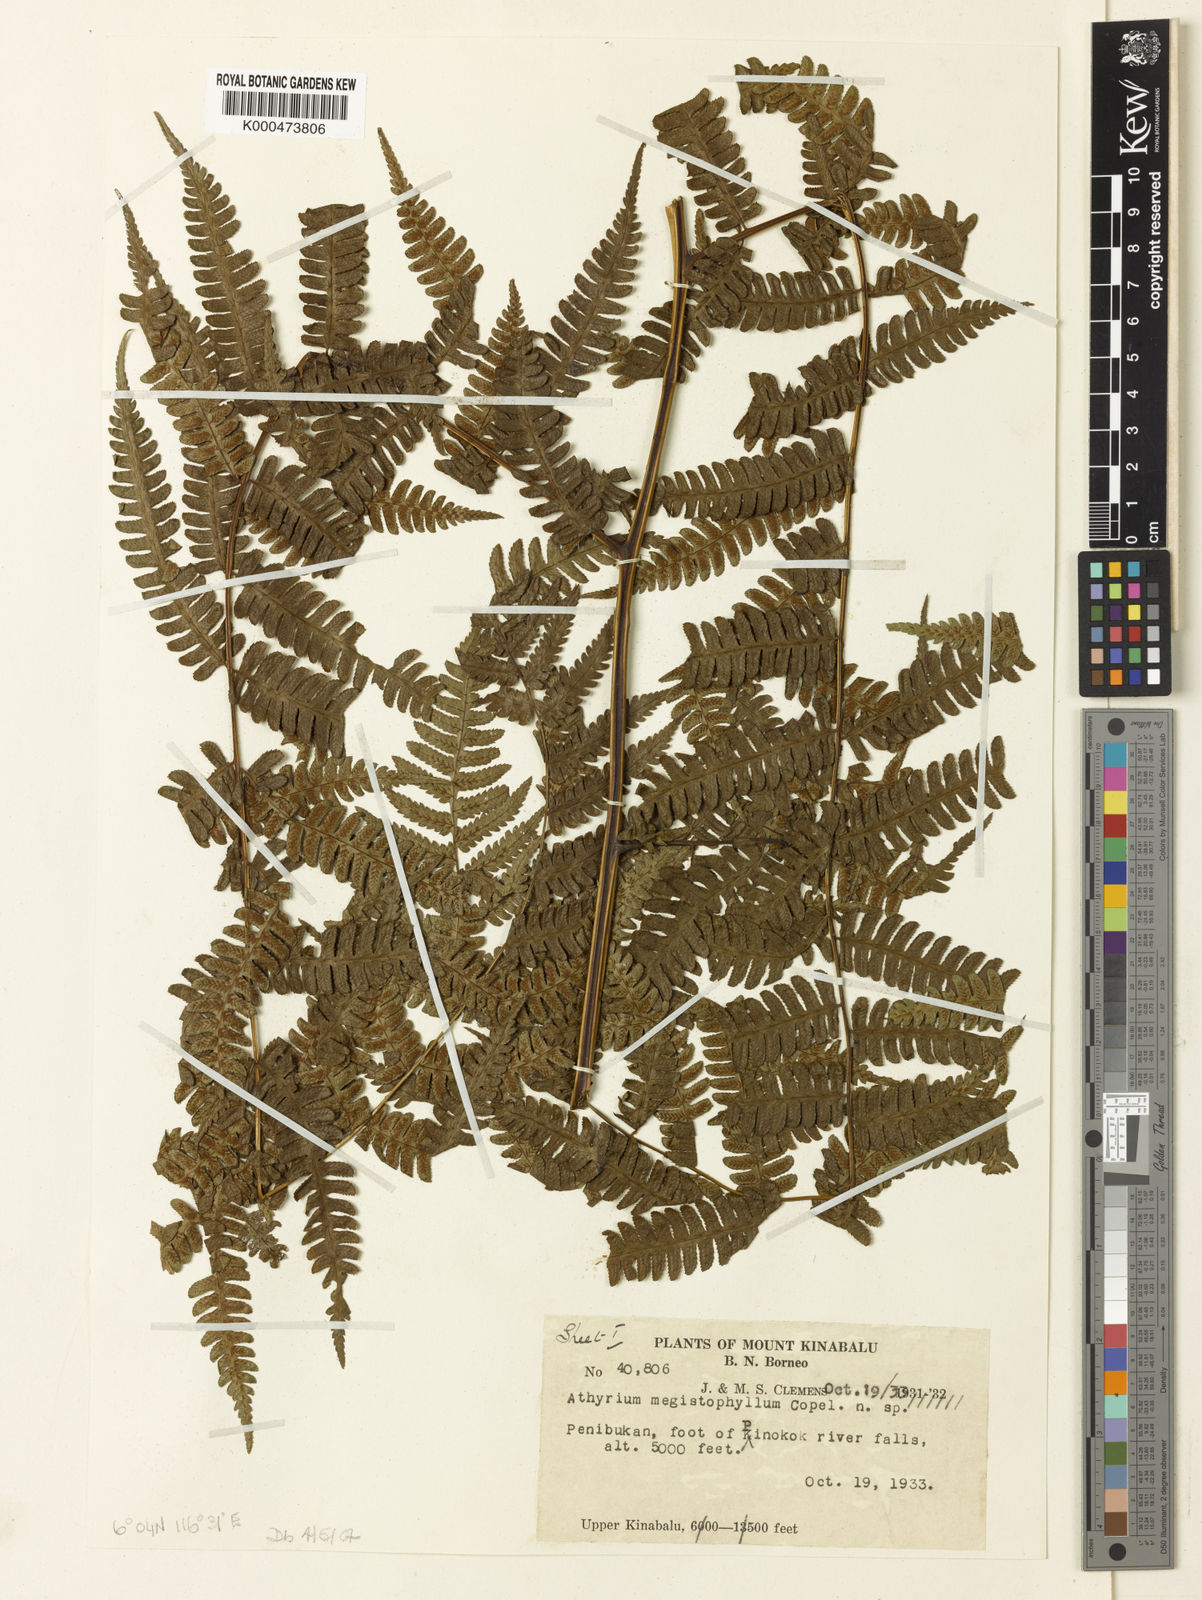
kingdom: Plantae
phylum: Tracheophyta
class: Polypodiopsida
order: Polypodiales
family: Athyriaceae
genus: Diplazium
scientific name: Diplazium megistophyllum
